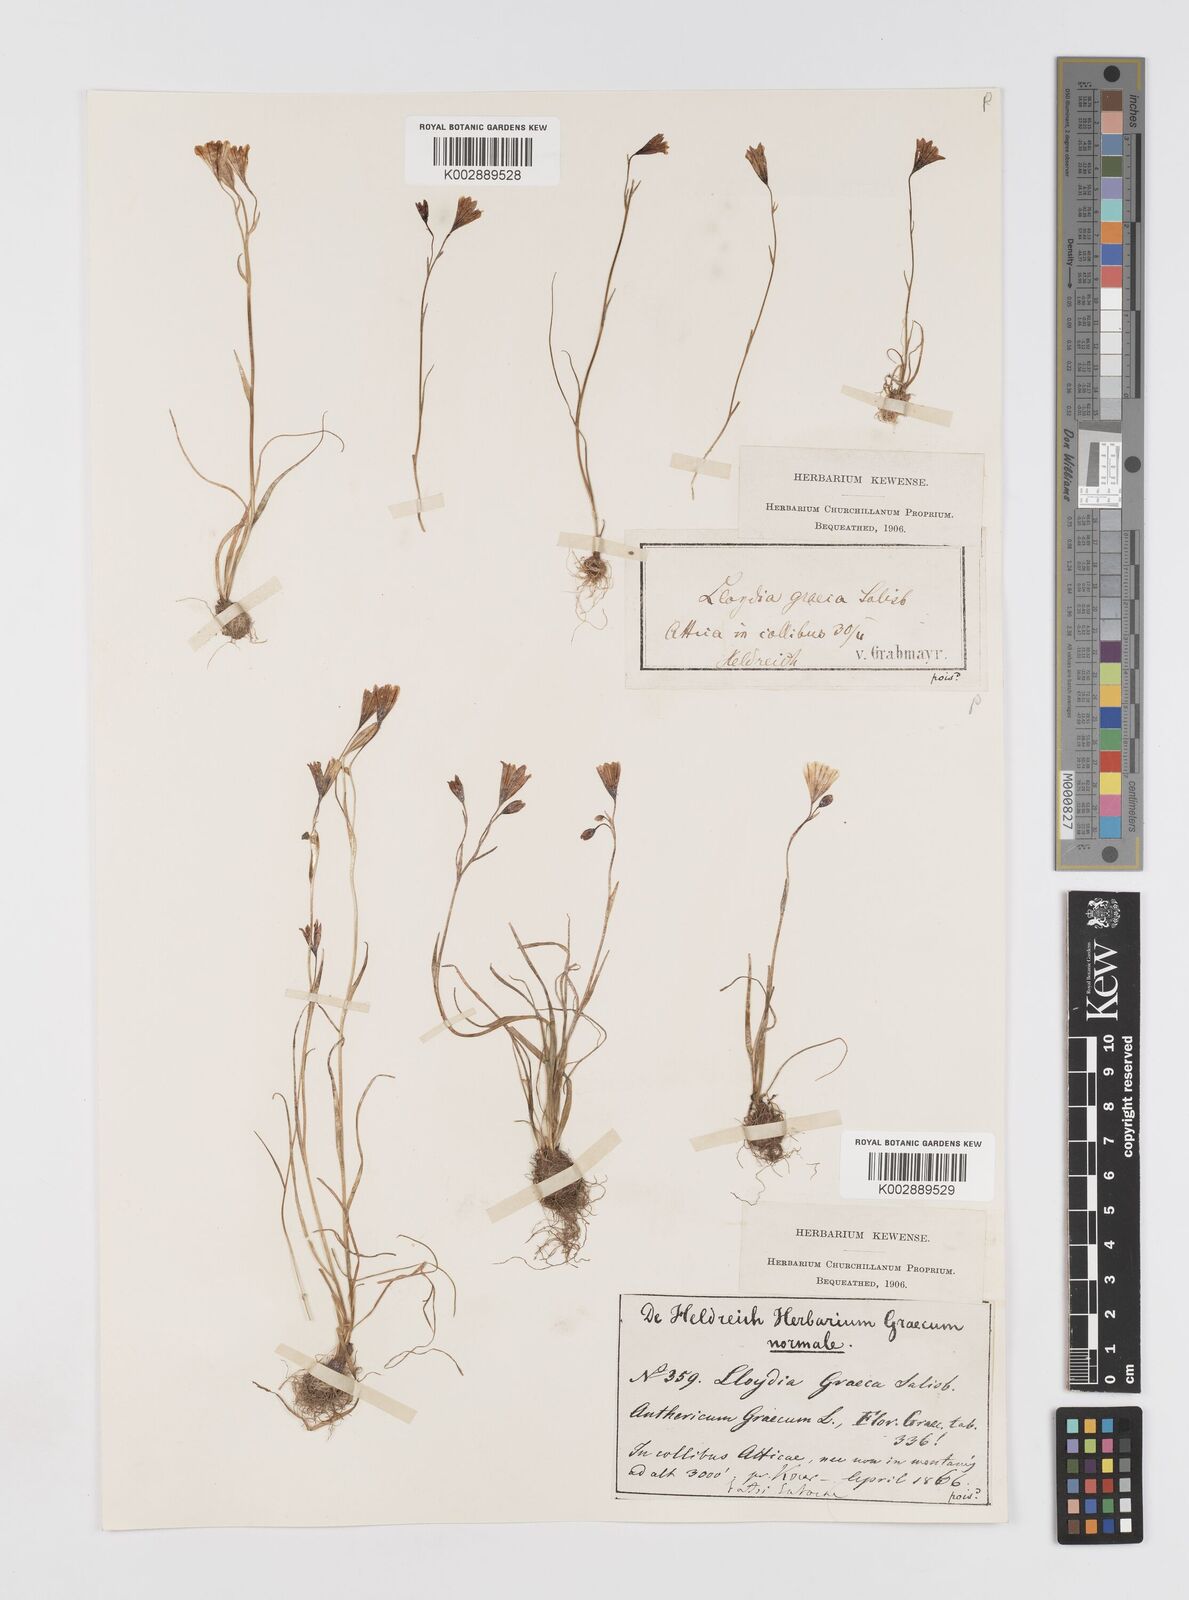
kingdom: Plantae
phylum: Tracheophyta
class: Liliopsida
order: Liliales
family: Liliaceae
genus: Gagea
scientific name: Gagea graeca
